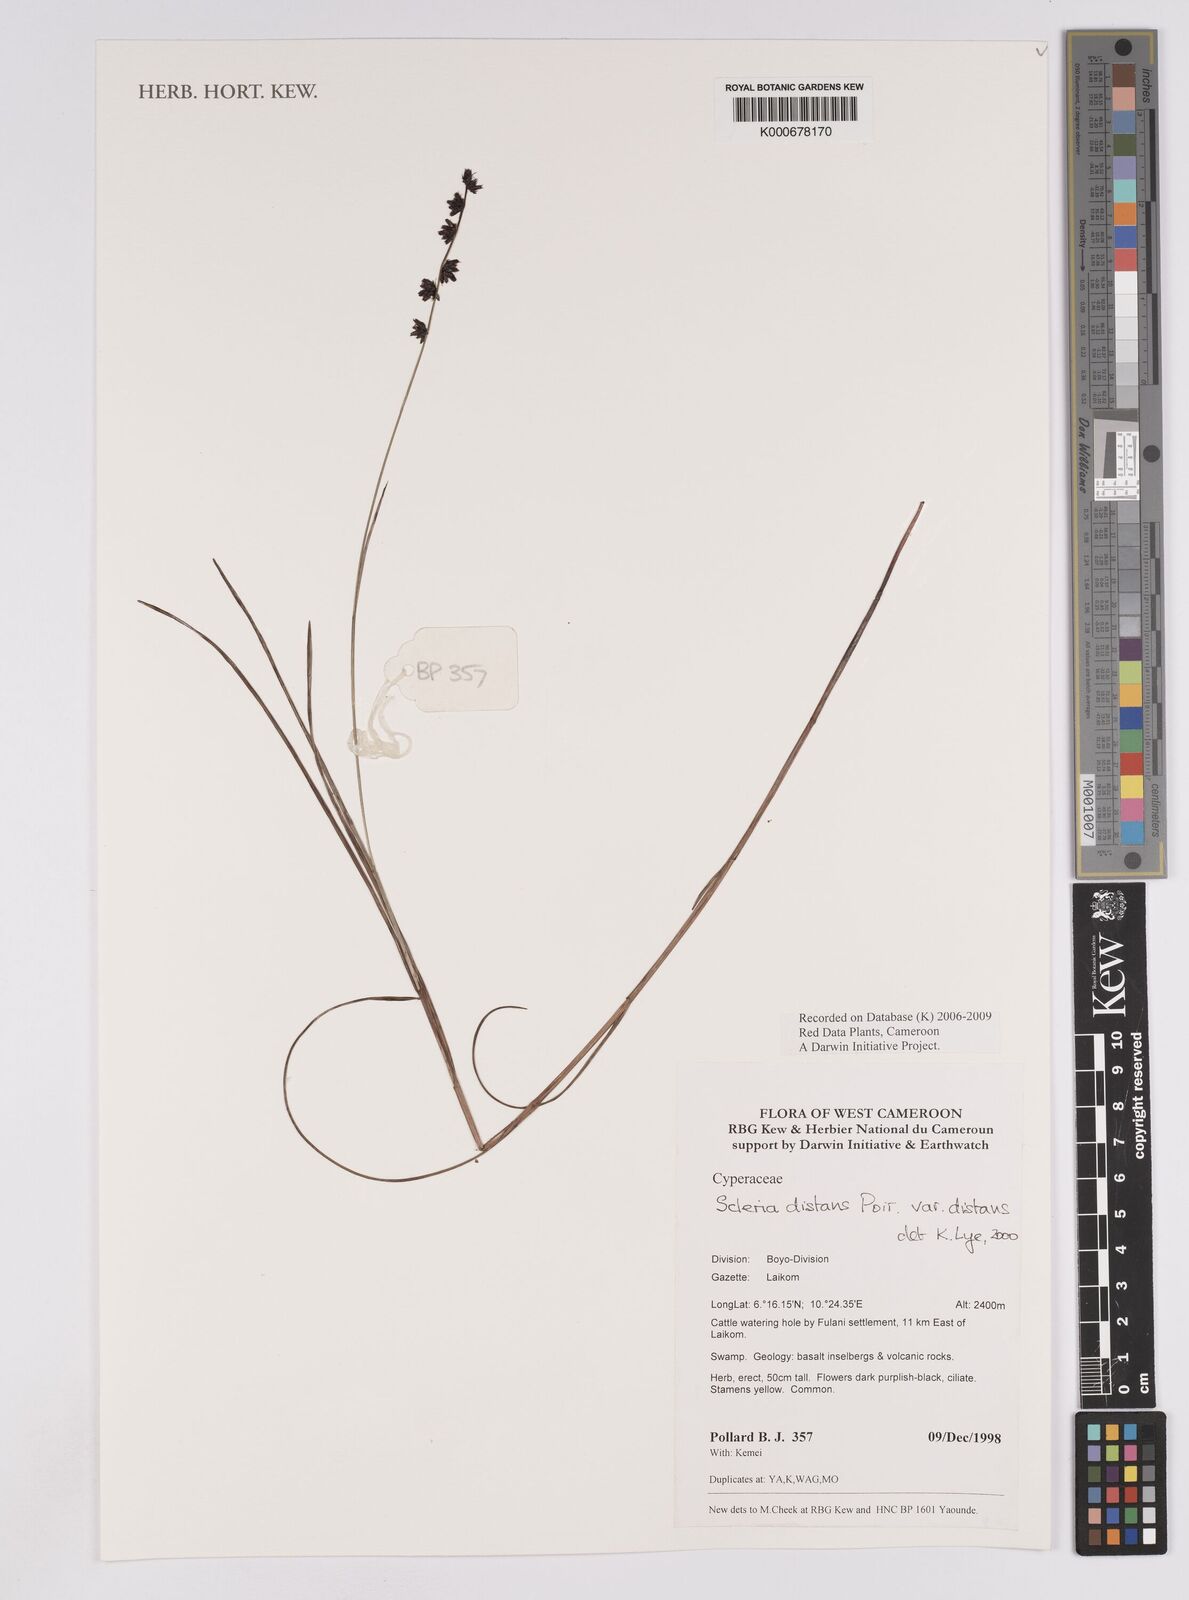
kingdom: Plantae
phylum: Tracheophyta
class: Liliopsida
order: Poales
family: Cyperaceae
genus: Scleria
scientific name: Scleria distans
